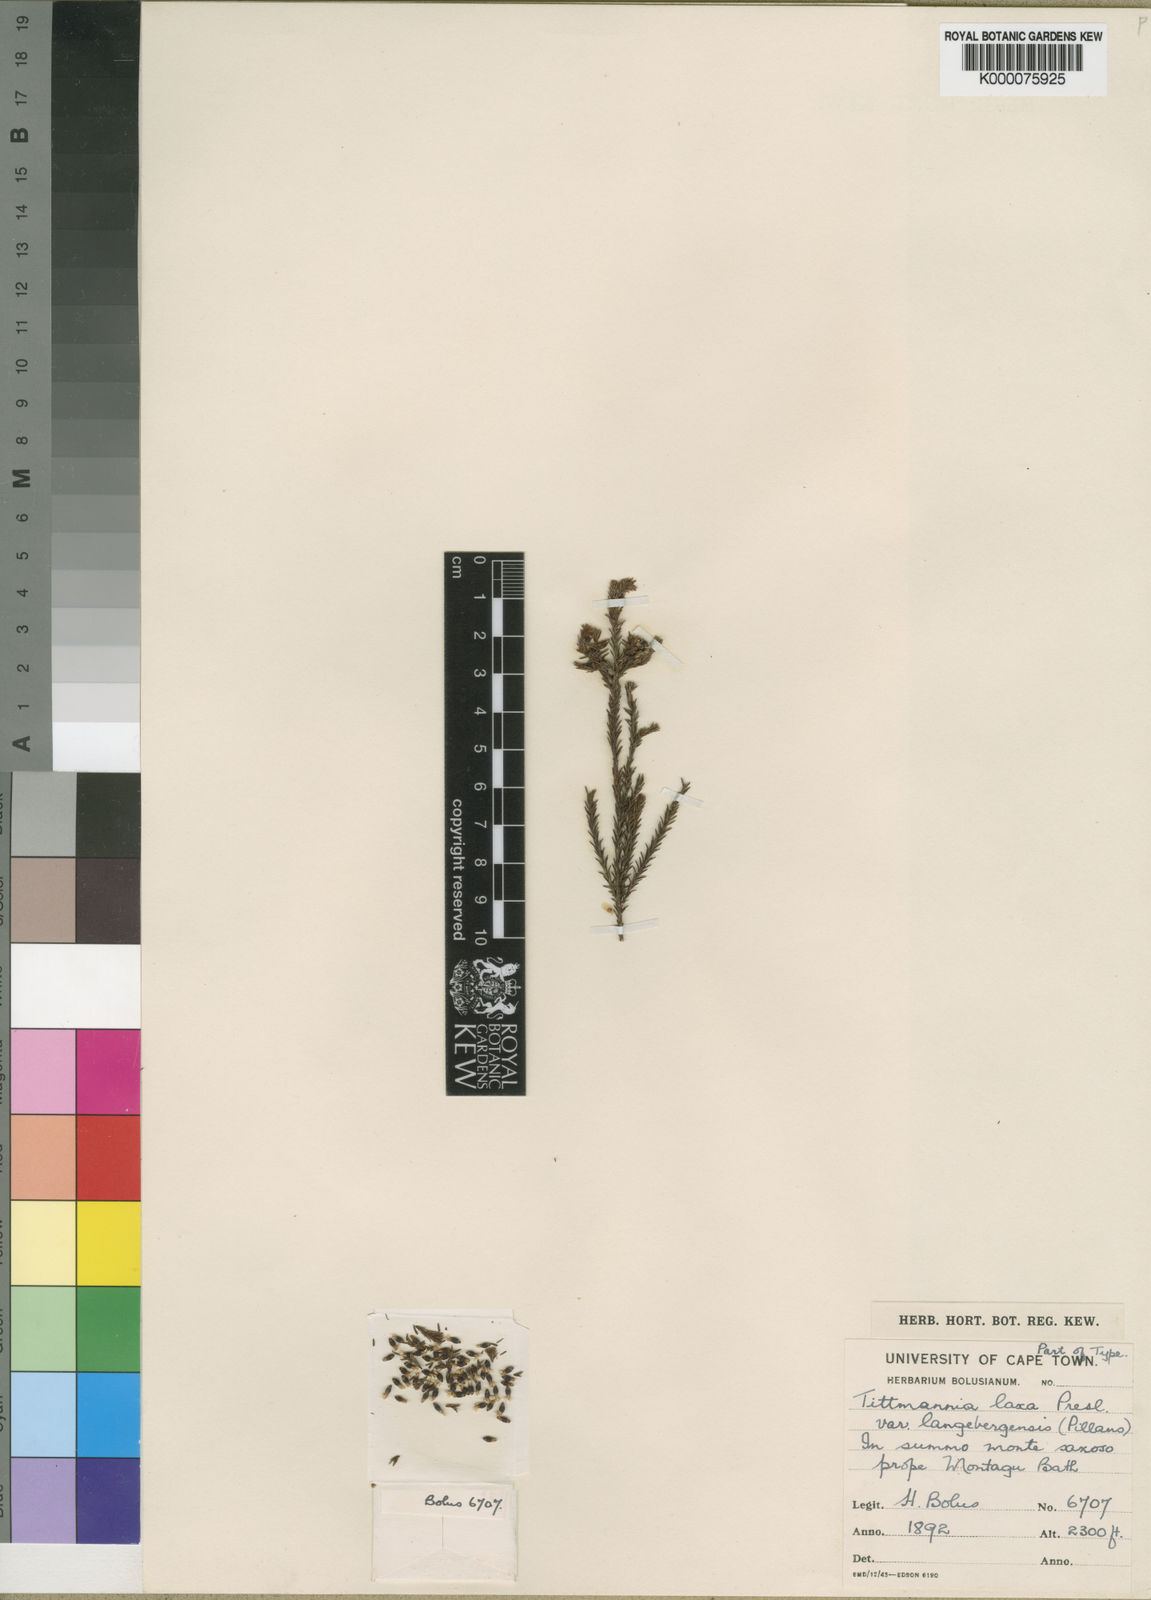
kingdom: Plantae
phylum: Tracheophyta
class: Magnoliopsida
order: Bruniales
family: Bruniaceae
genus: Audouinia
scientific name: Audouinia laxa
